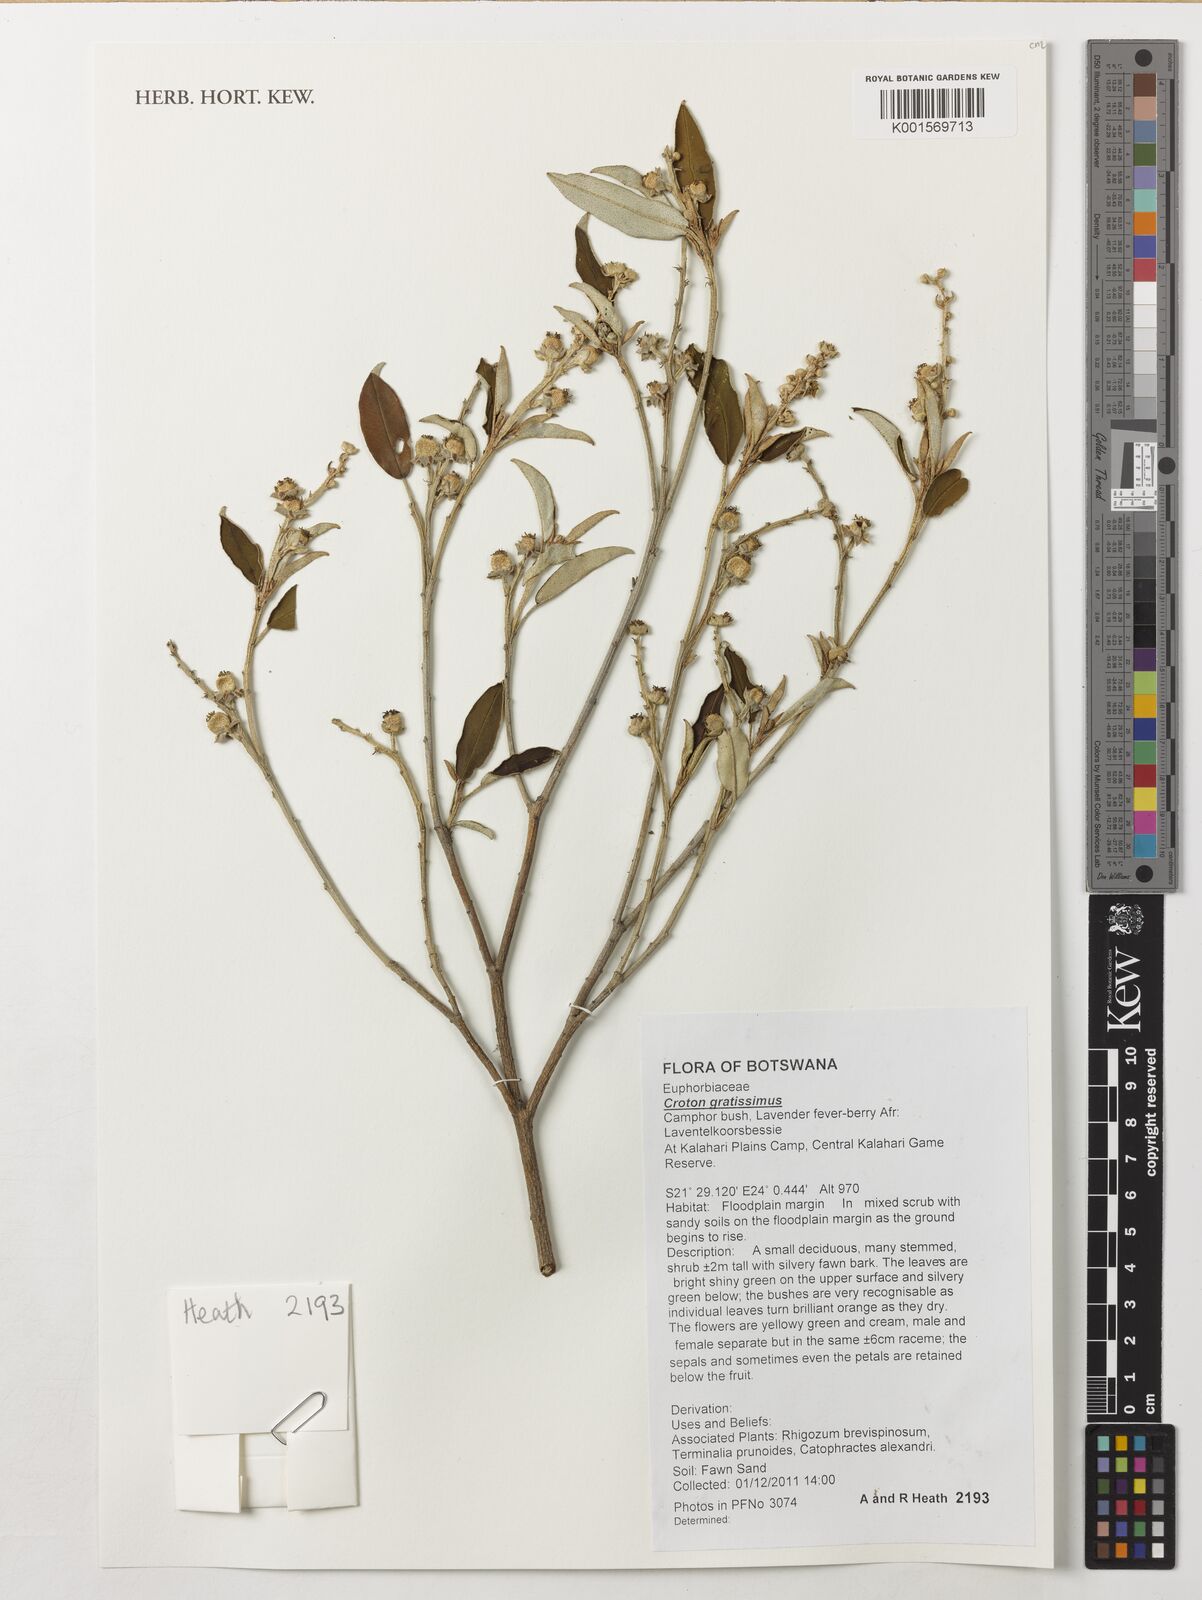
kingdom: Plantae
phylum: Tracheophyta
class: Magnoliopsida
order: Malpighiales
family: Euphorbiaceae
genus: Croton
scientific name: Croton gratissimus
